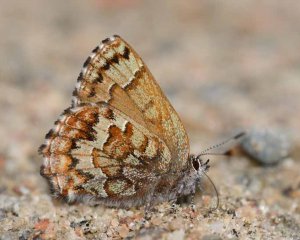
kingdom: Animalia
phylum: Arthropoda
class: Insecta
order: Lepidoptera
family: Lycaenidae
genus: Incisalia
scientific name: Incisalia niphon
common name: Eastern Pine Elfin
